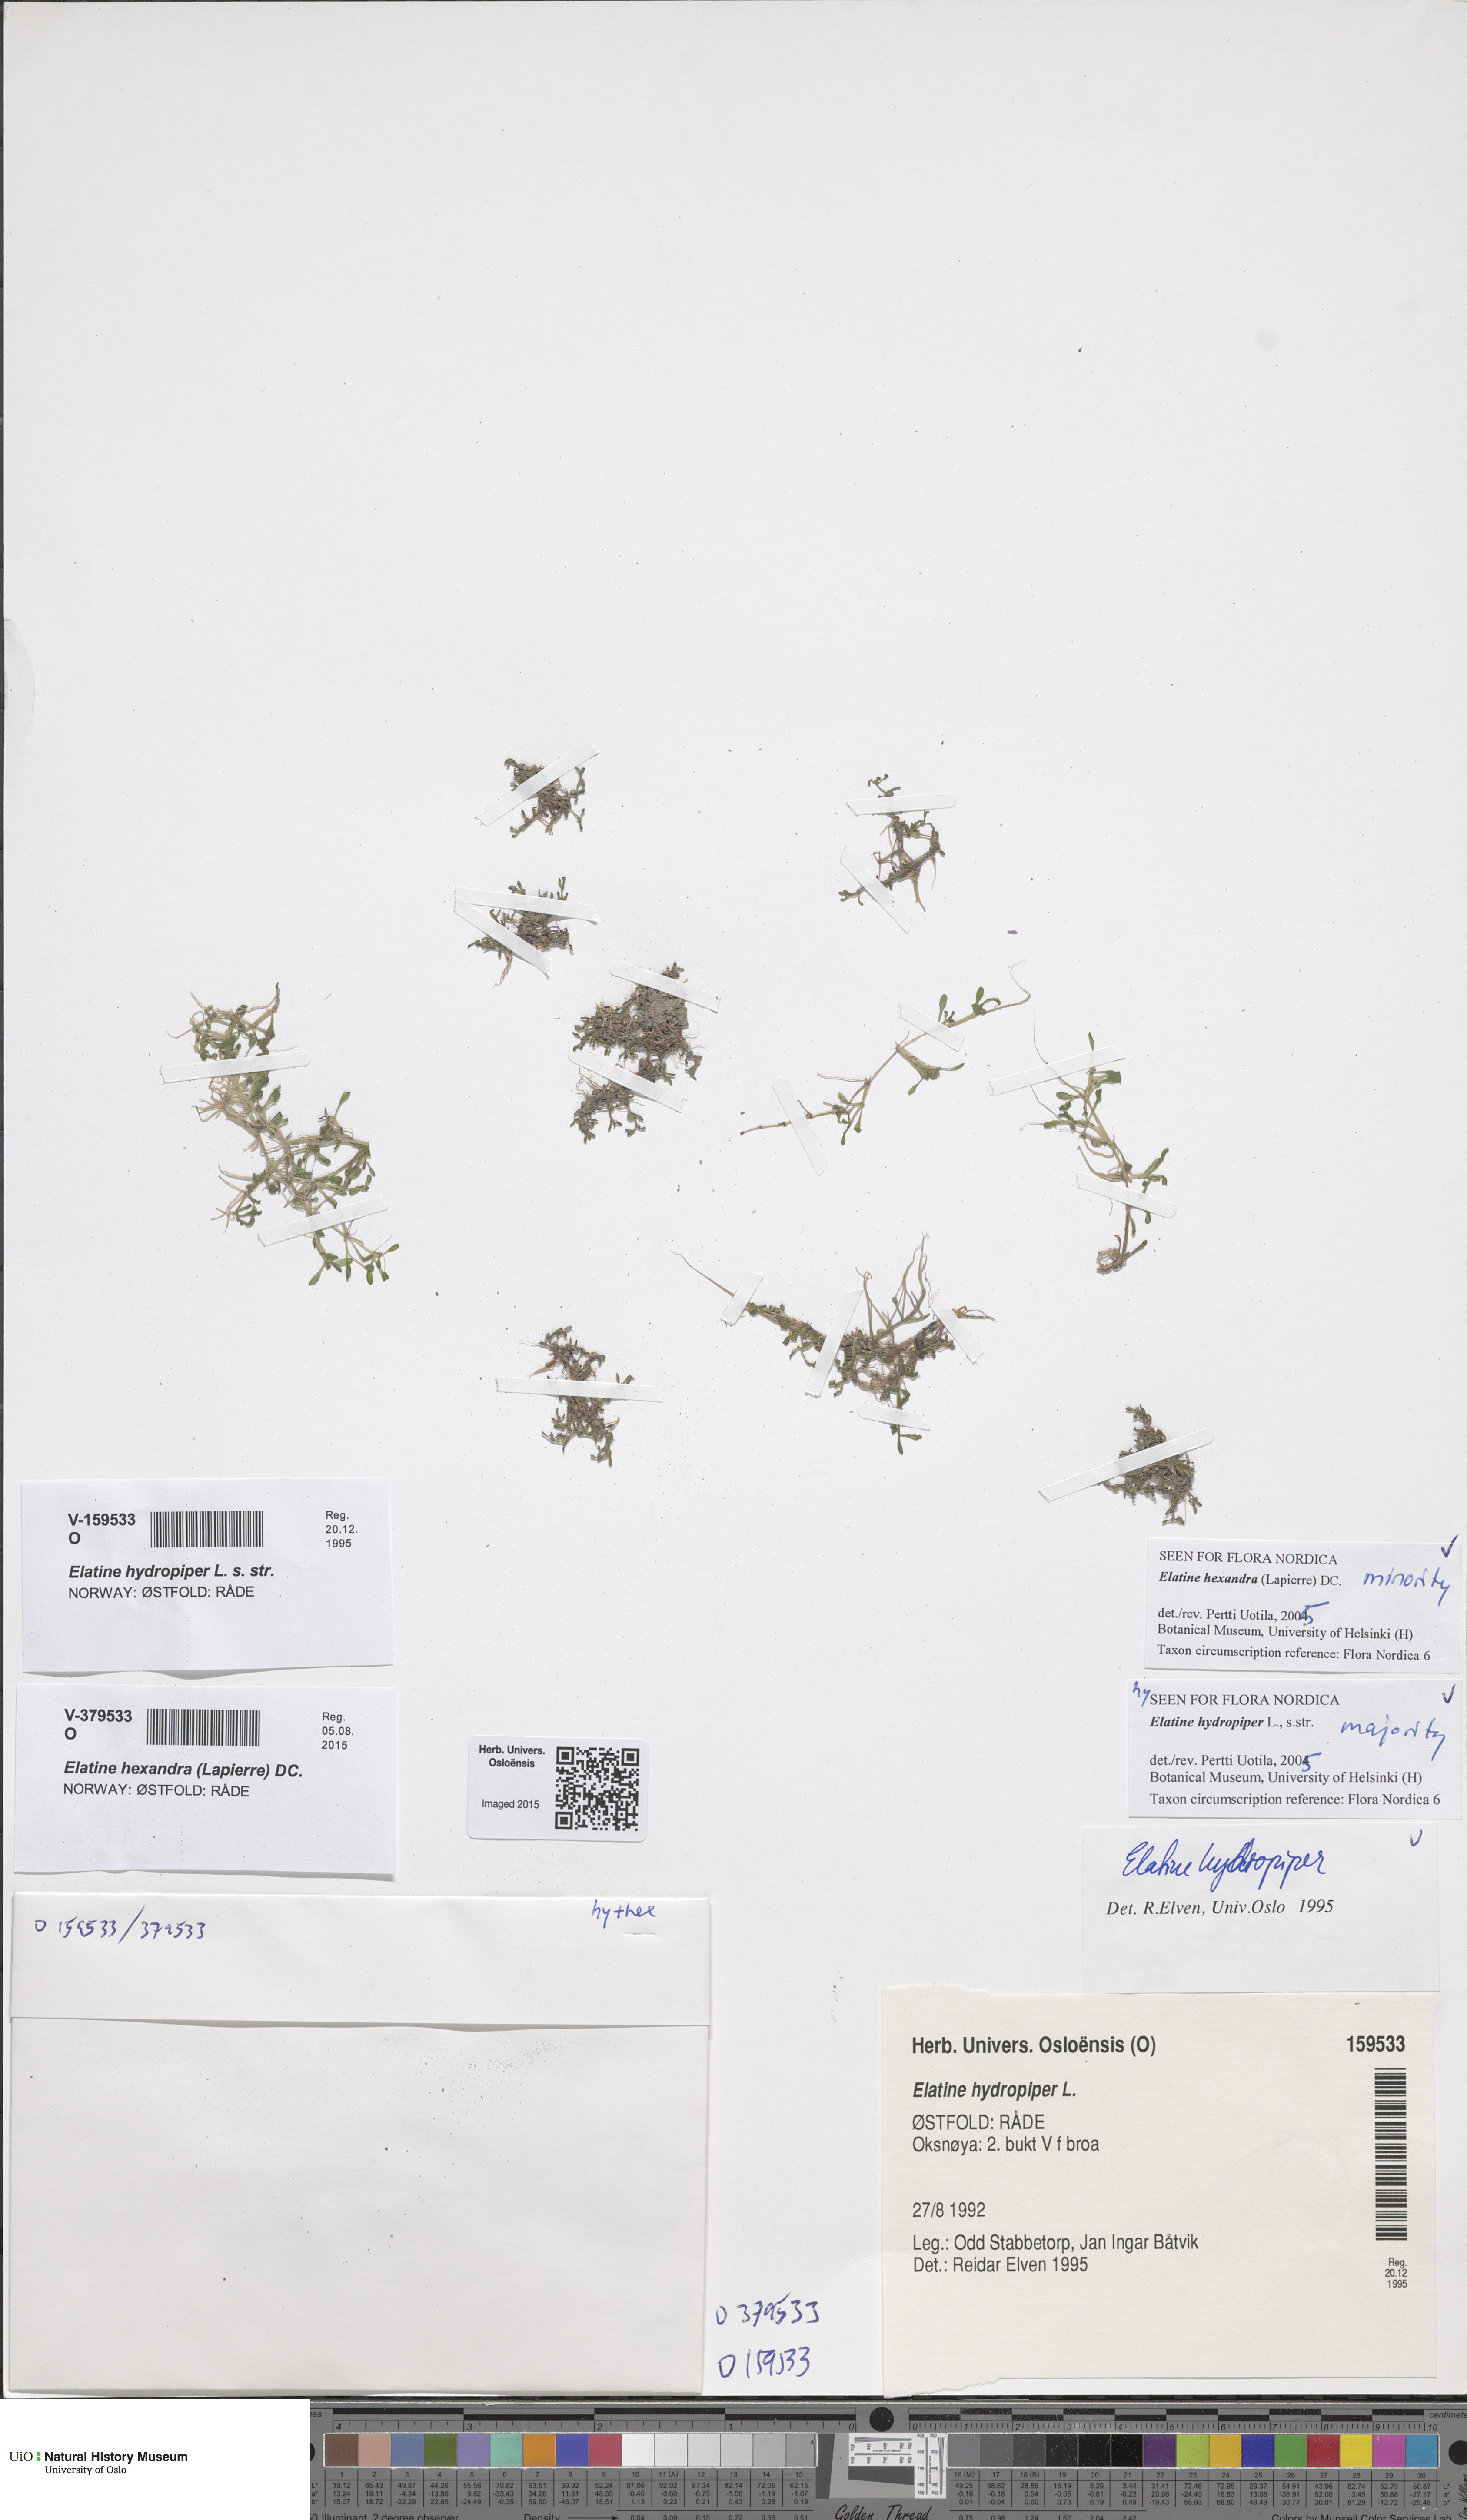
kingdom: Plantae
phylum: Tracheophyta
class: Magnoliopsida
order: Malpighiales
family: Elatinaceae
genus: Elatine
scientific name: Elatine hydropiper
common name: Eight-stamened waterwort
